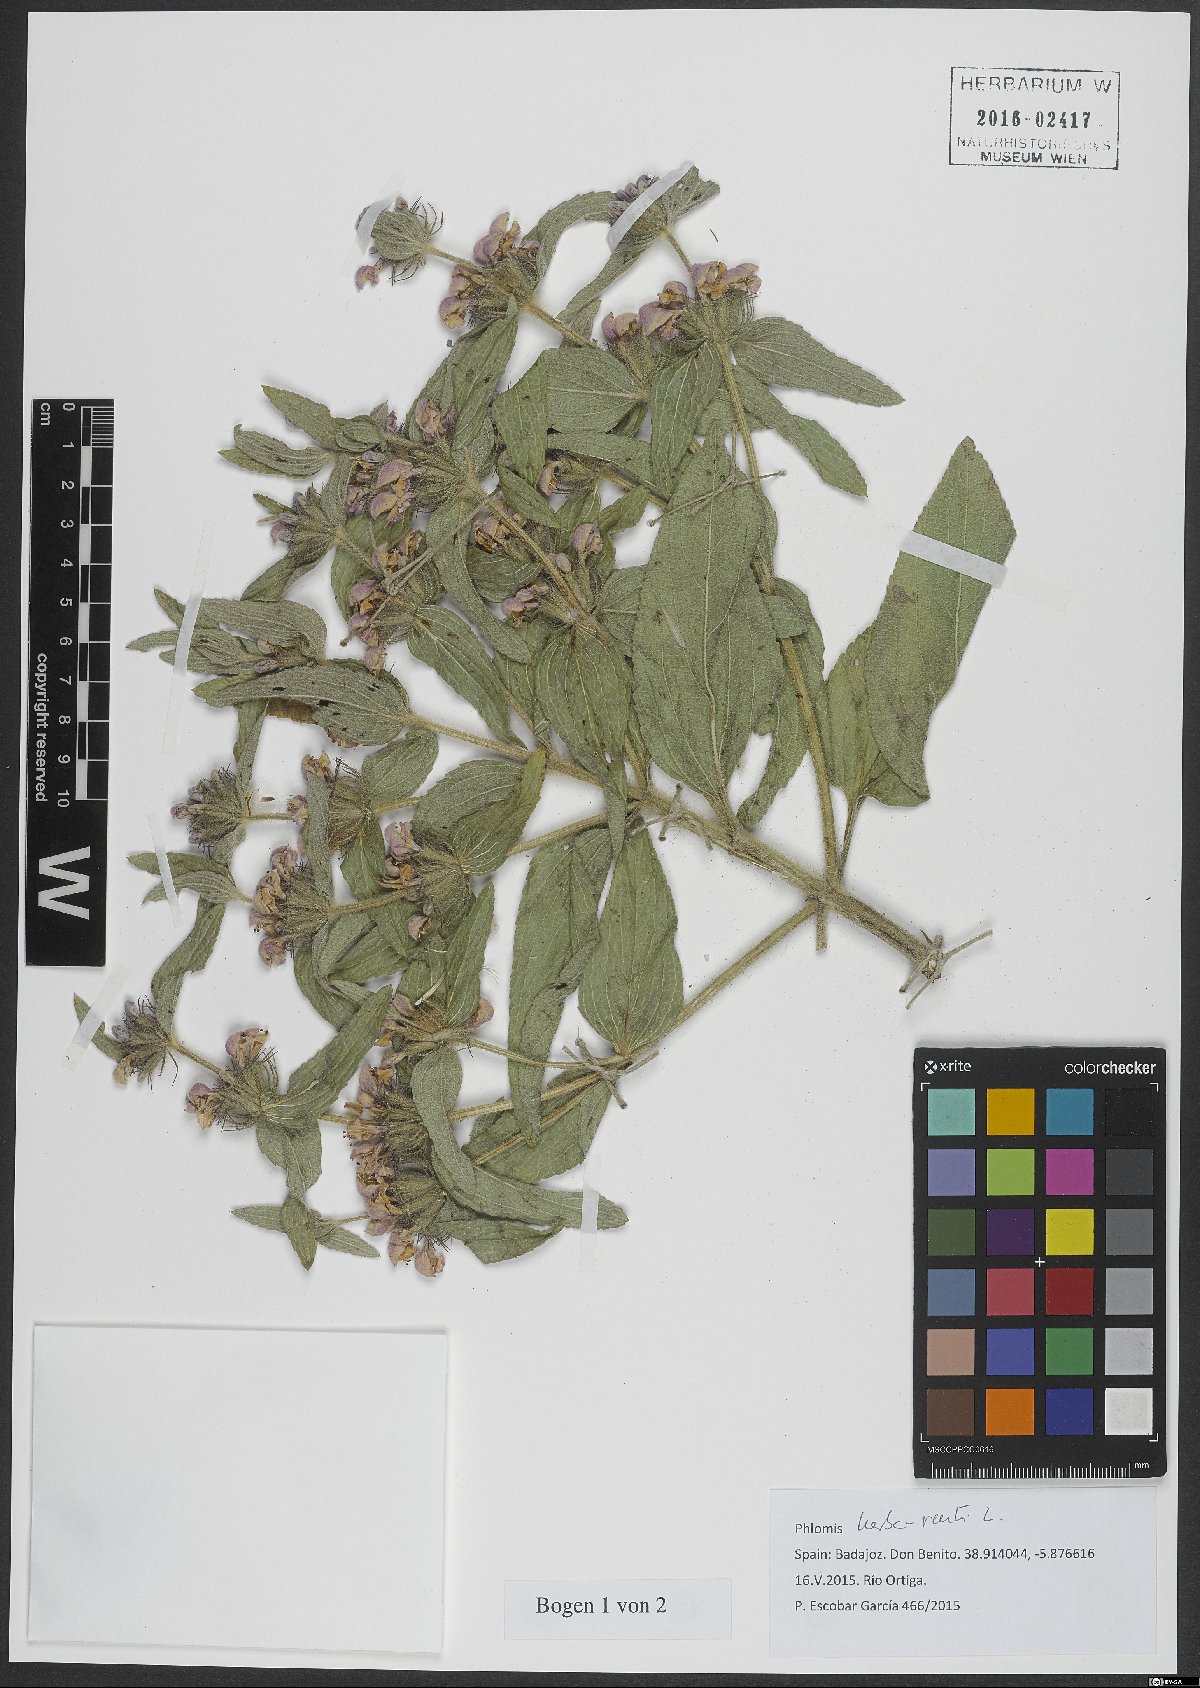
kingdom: Plantae
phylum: Tracheophyta
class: Magnoliopsida
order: Lamiales
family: Lamiaceae
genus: Phlomis
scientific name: Phlomis herba-venti
